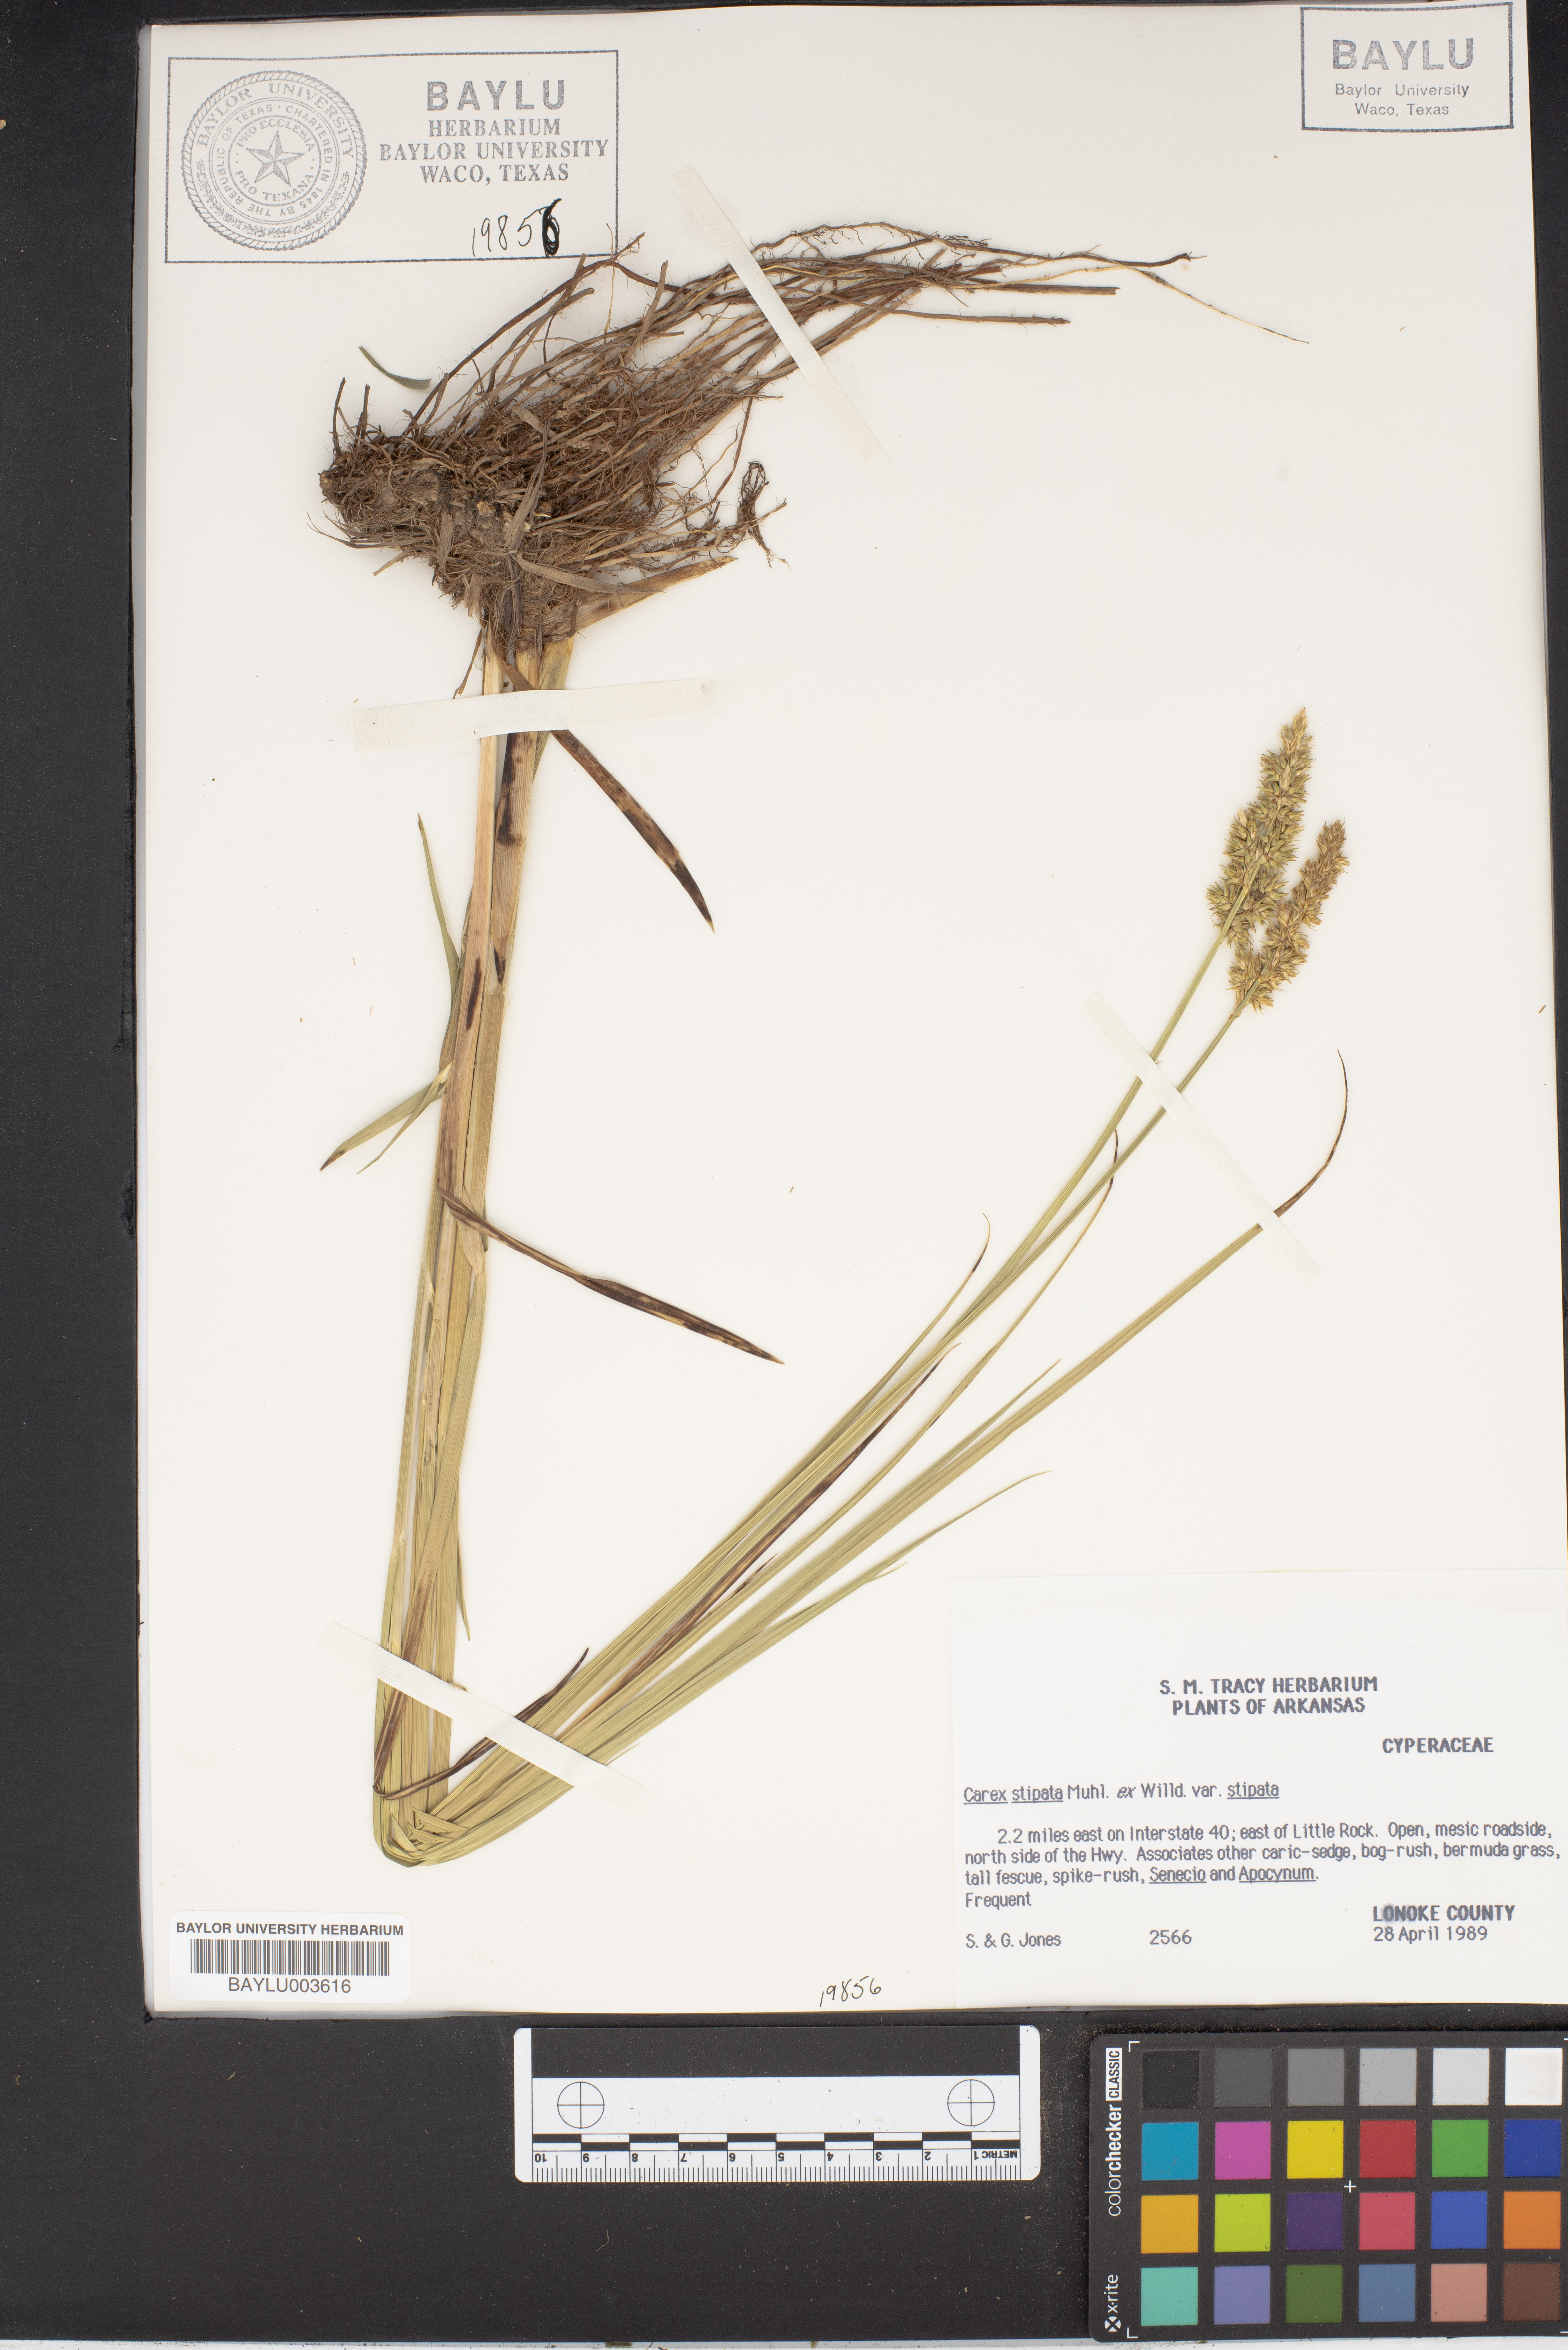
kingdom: Plantae
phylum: Tracheophyta
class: Liliopsida
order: Poales
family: Cyperaceae
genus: Carex
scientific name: Carex stipata
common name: Awl-fruited sedge
